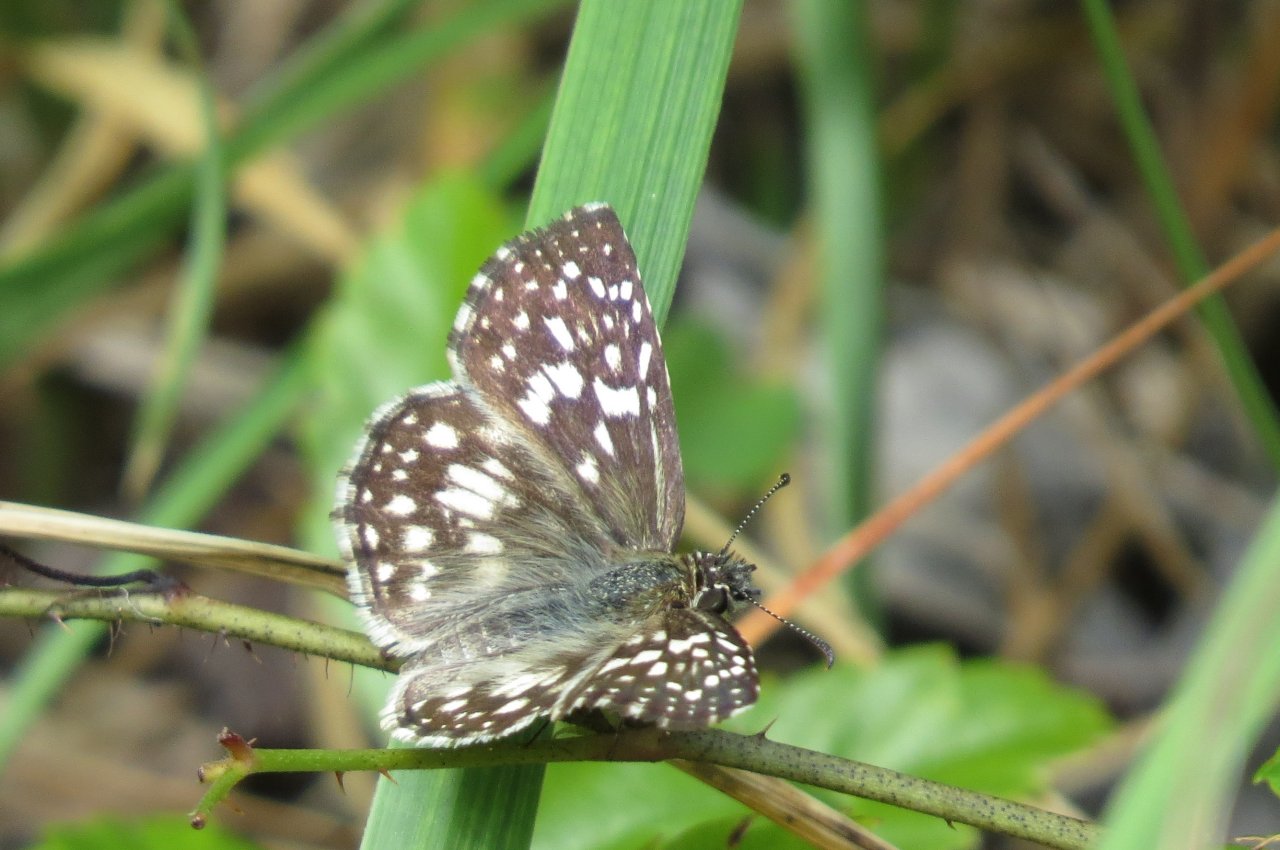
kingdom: Animalia
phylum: Arthropoda
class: Insecta
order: Lepidoptera
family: Hesperiidae
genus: Pyrgus
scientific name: Pyrgus oileus
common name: Tropical Checkered-Skipper
